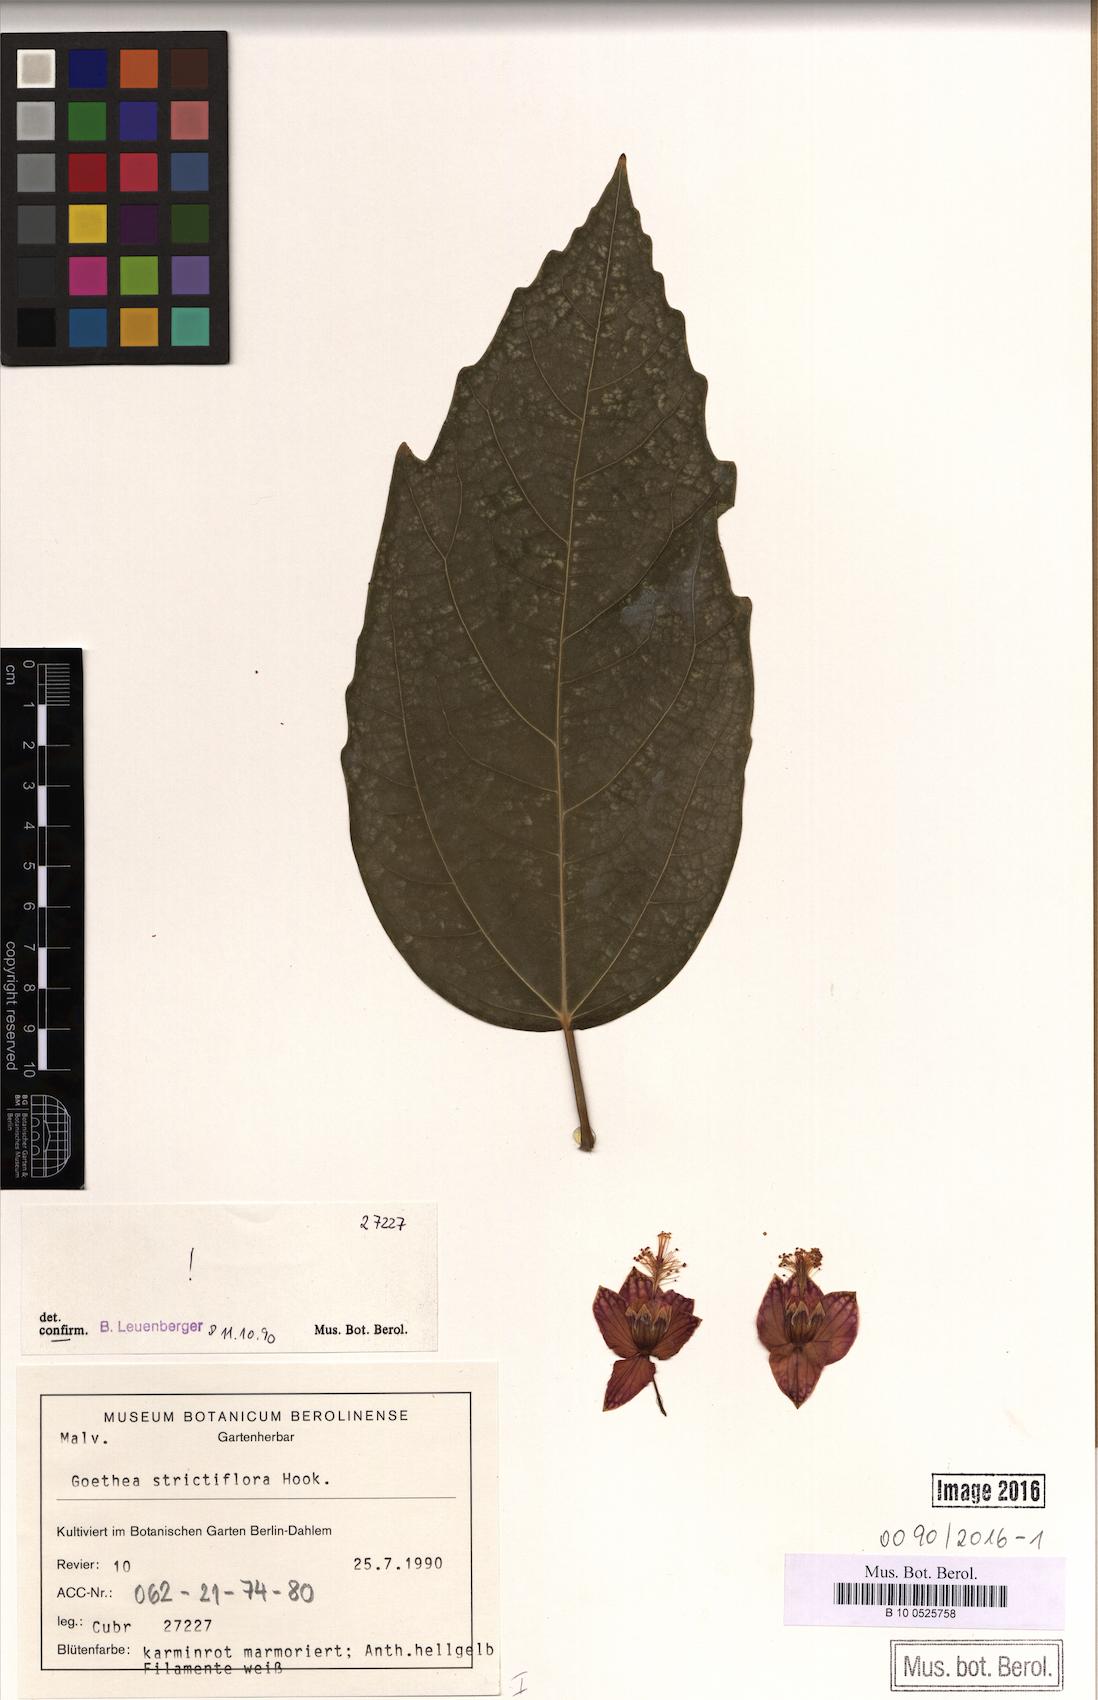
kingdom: Plantae
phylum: Tracheophyta
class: Magnoliopsida
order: Malvales
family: Malvaceae
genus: Pavonia
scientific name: Pavonia strictiflora
